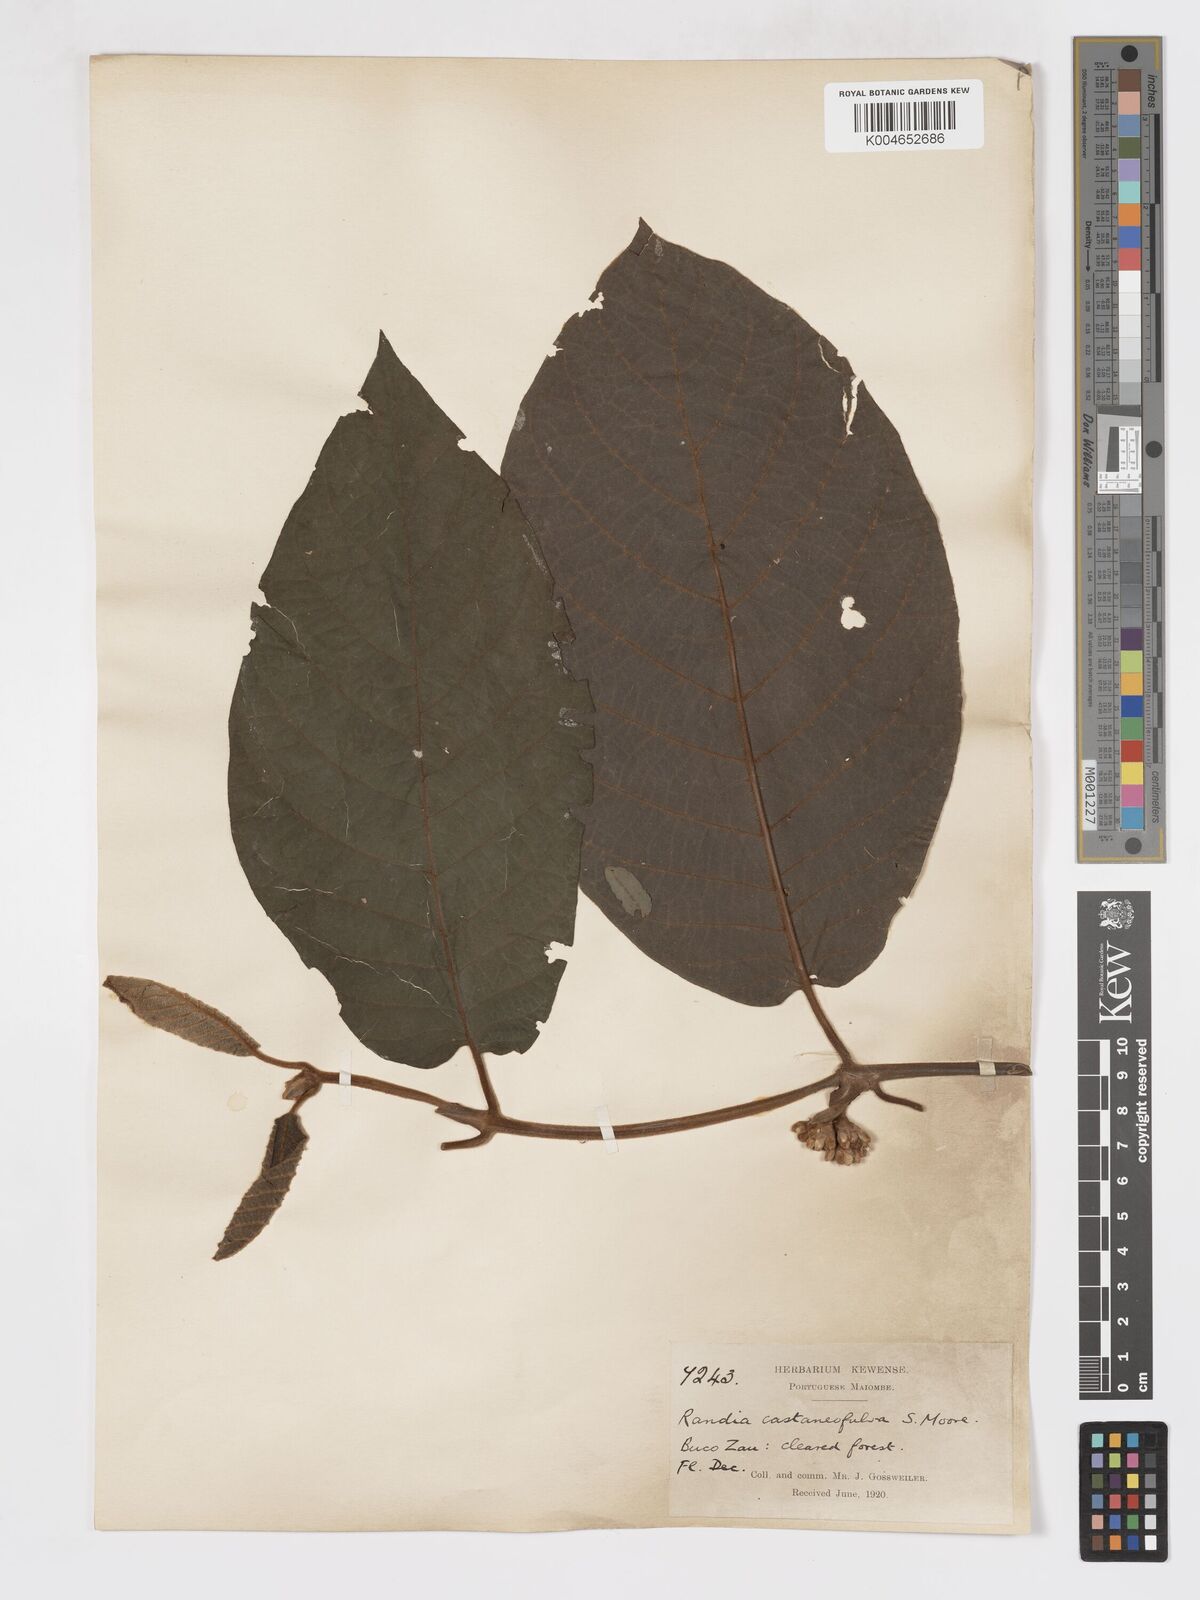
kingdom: Plantae
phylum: Tracheophyta
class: Magnoliopsida
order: Gentianales
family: Rubiaceae
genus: Aoranthe
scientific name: Aoranthe castaneofulva
